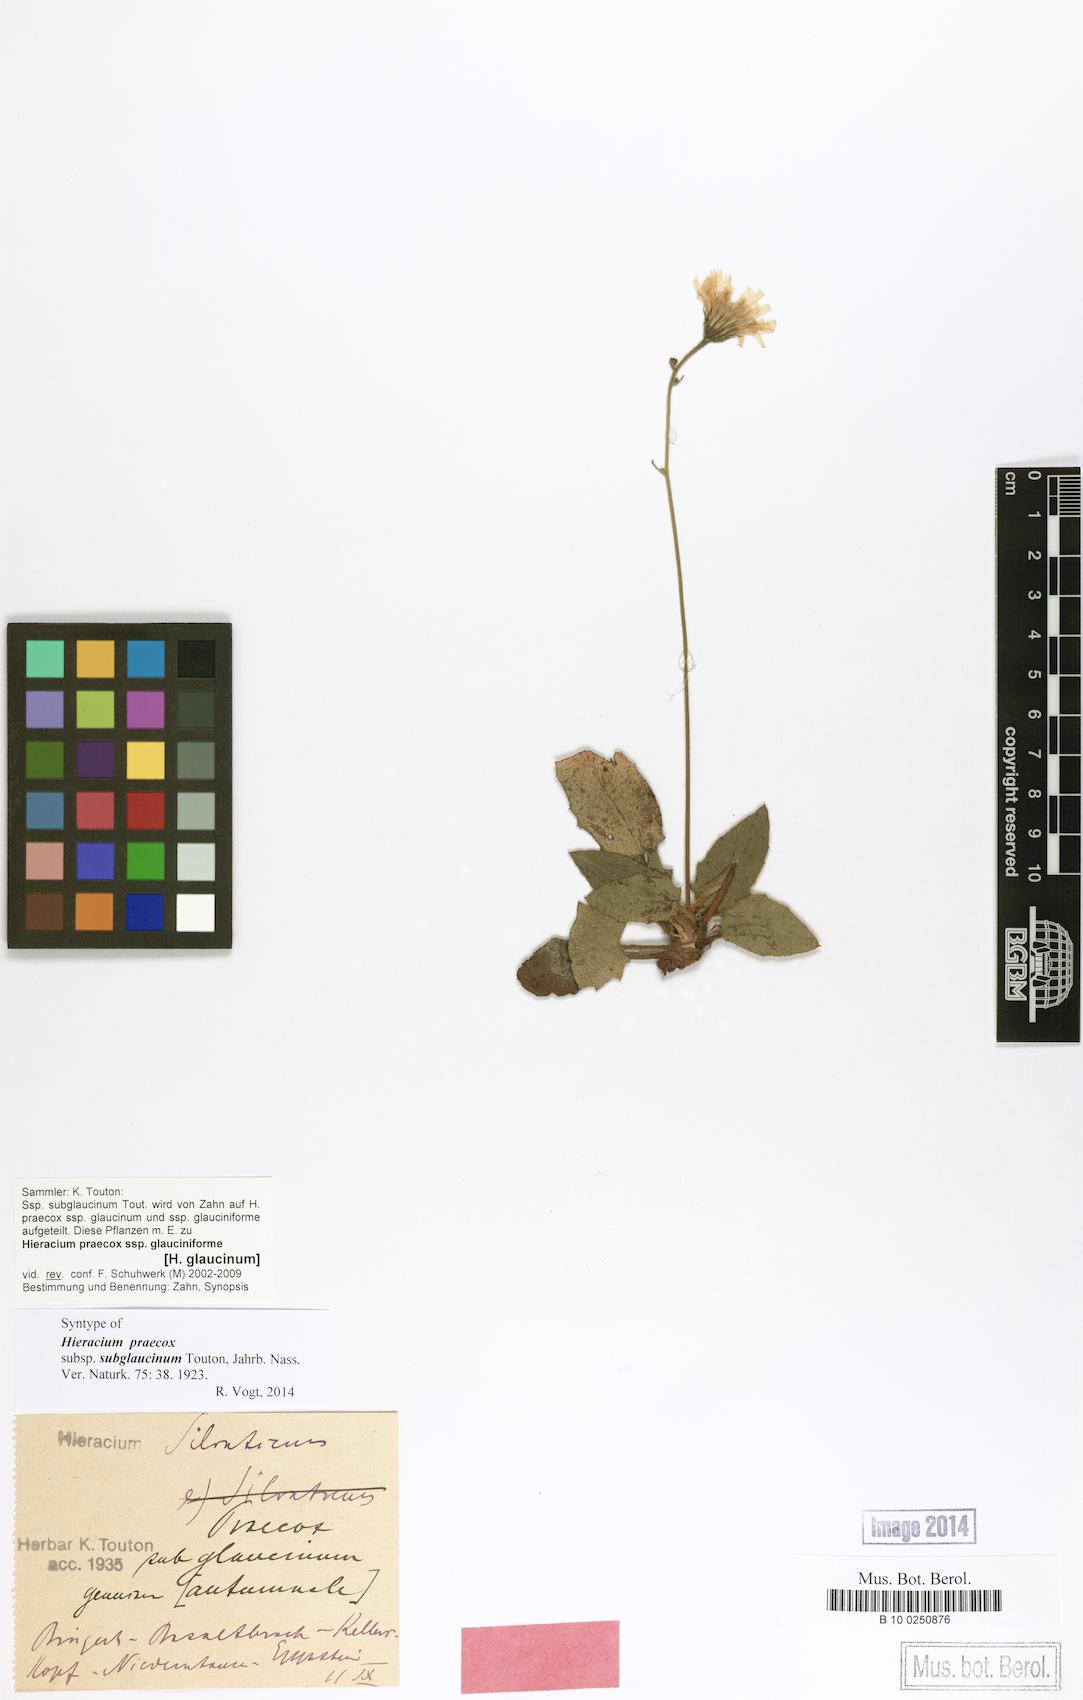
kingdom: Plantae
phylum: Tracheophyta
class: Magnoliopsida
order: Asterales
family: Asteraceae
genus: Hieracium
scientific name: Hieracium glaucinum
